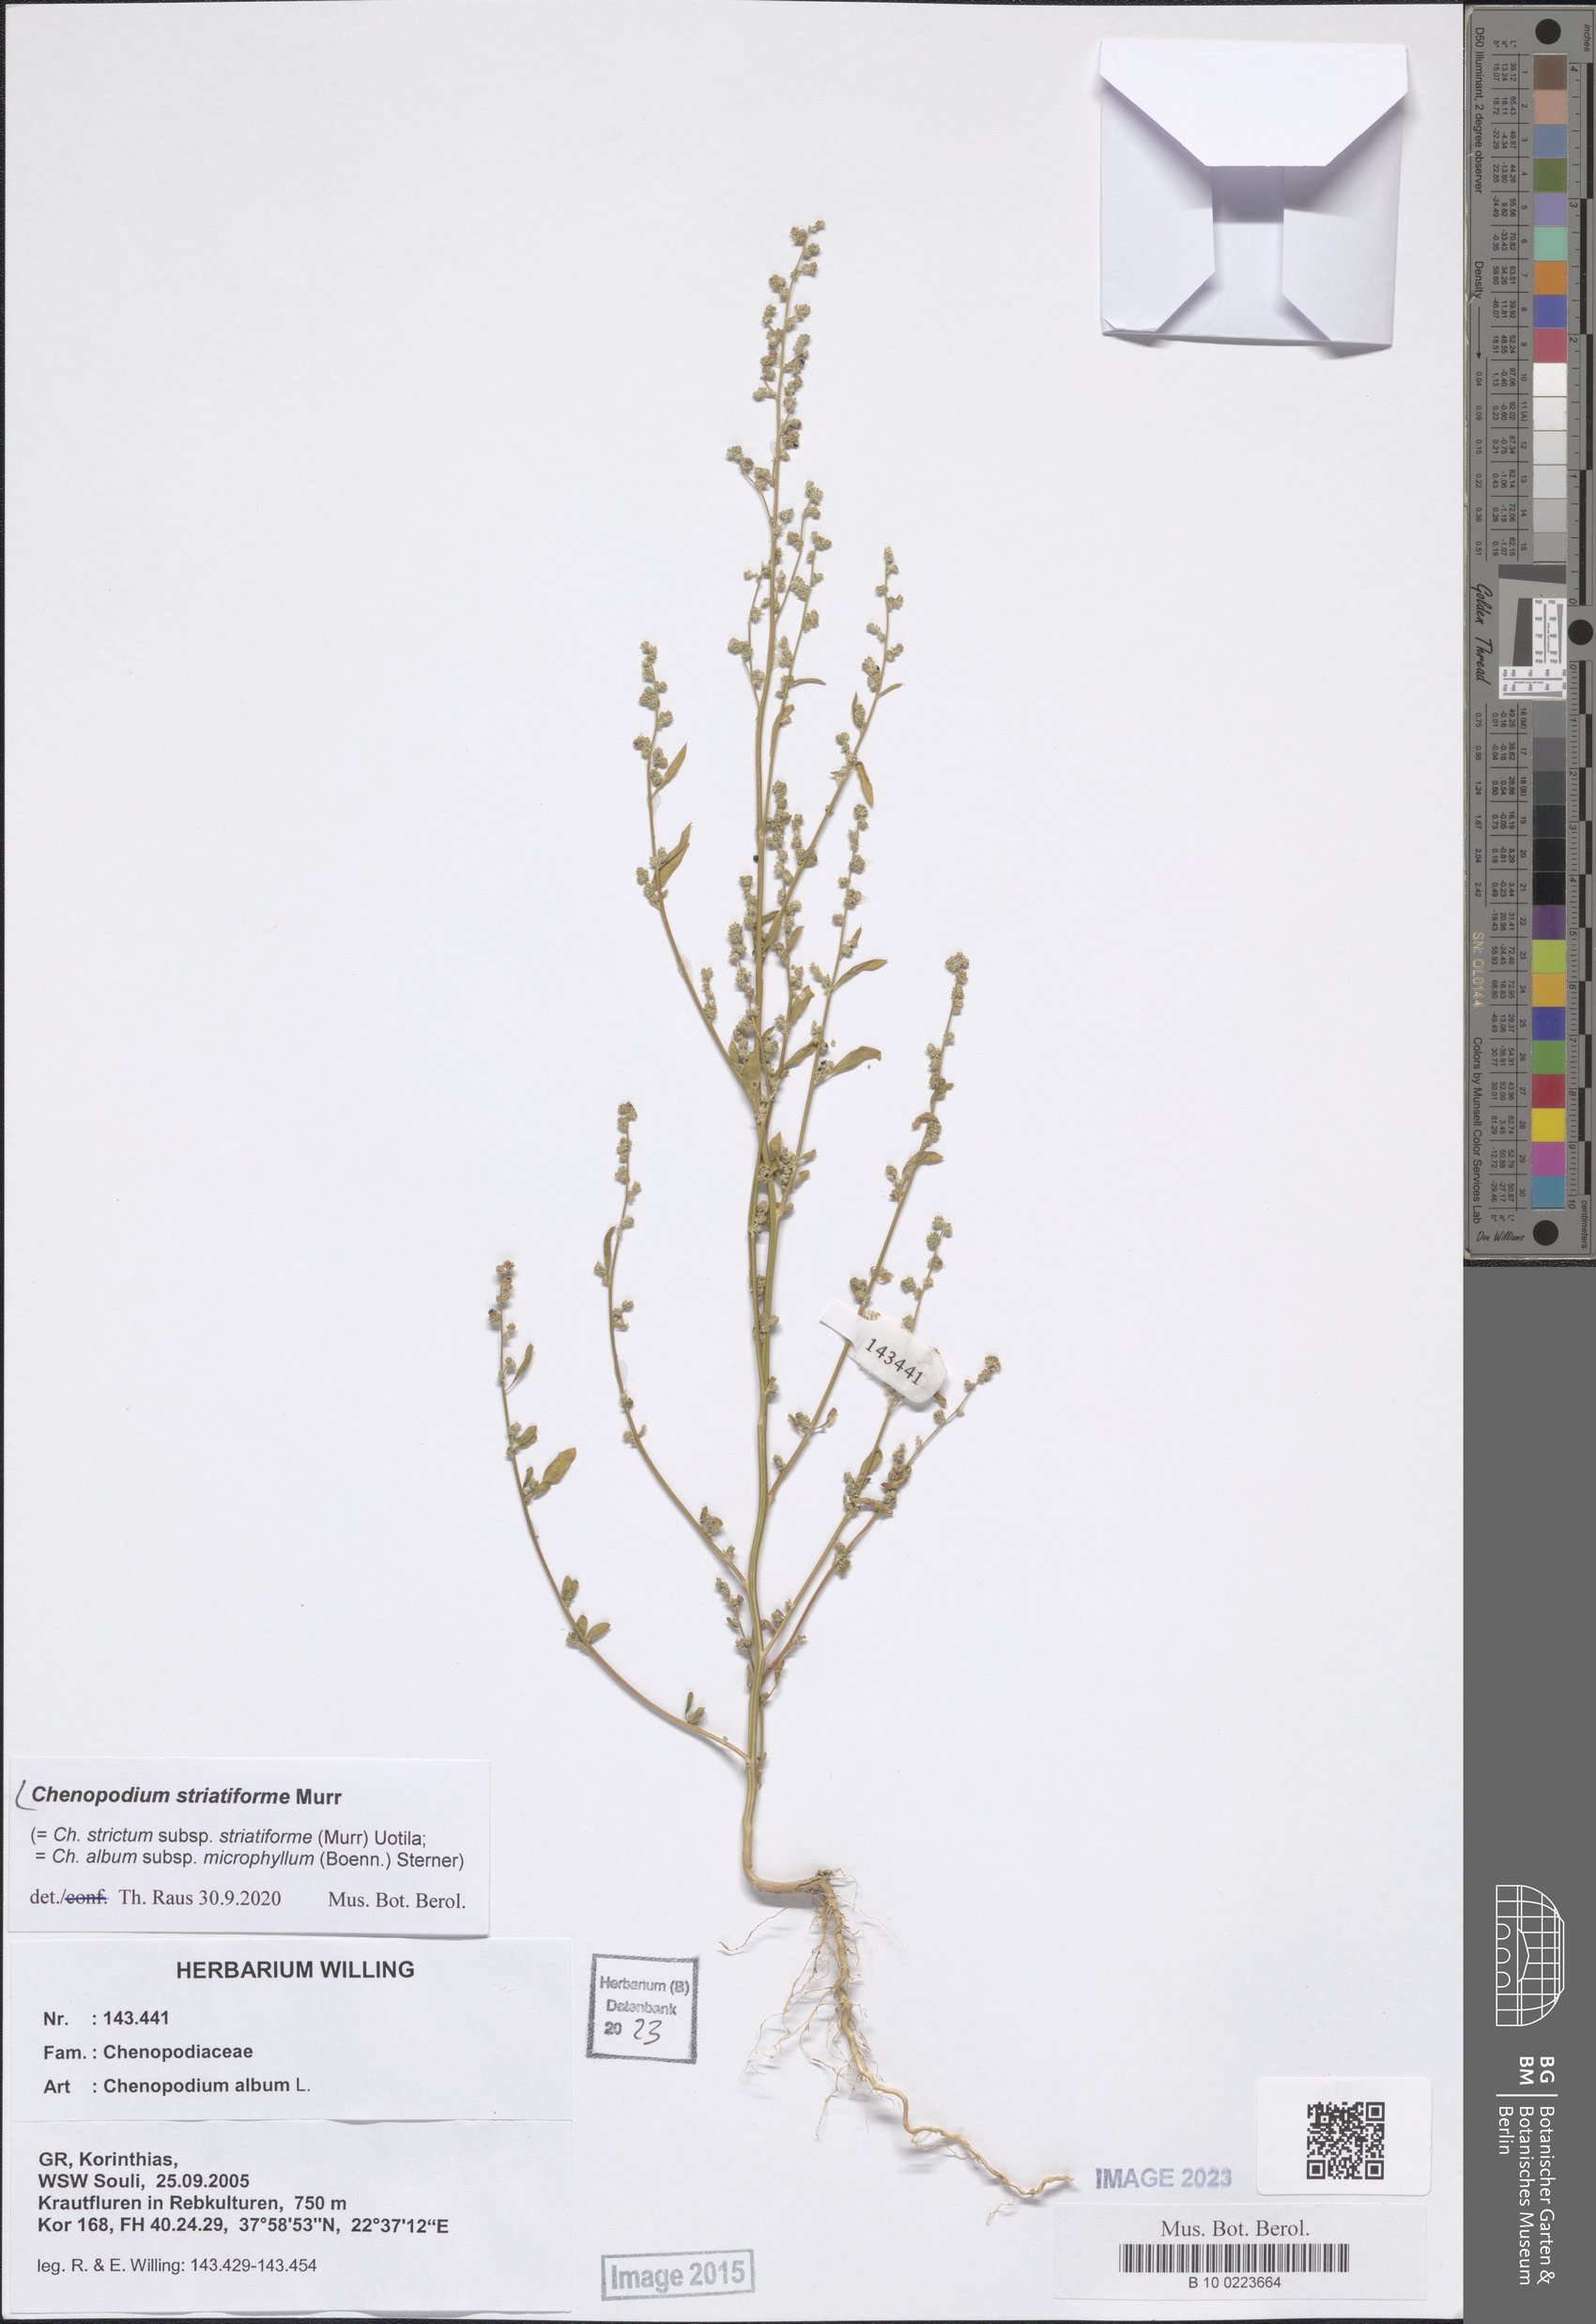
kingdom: Plantae
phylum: Tracheophyta
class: Magnoliopsida
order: Caryophyllales
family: Amaranthaceae
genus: Chenopodium
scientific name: Chenopodium striatiforme
